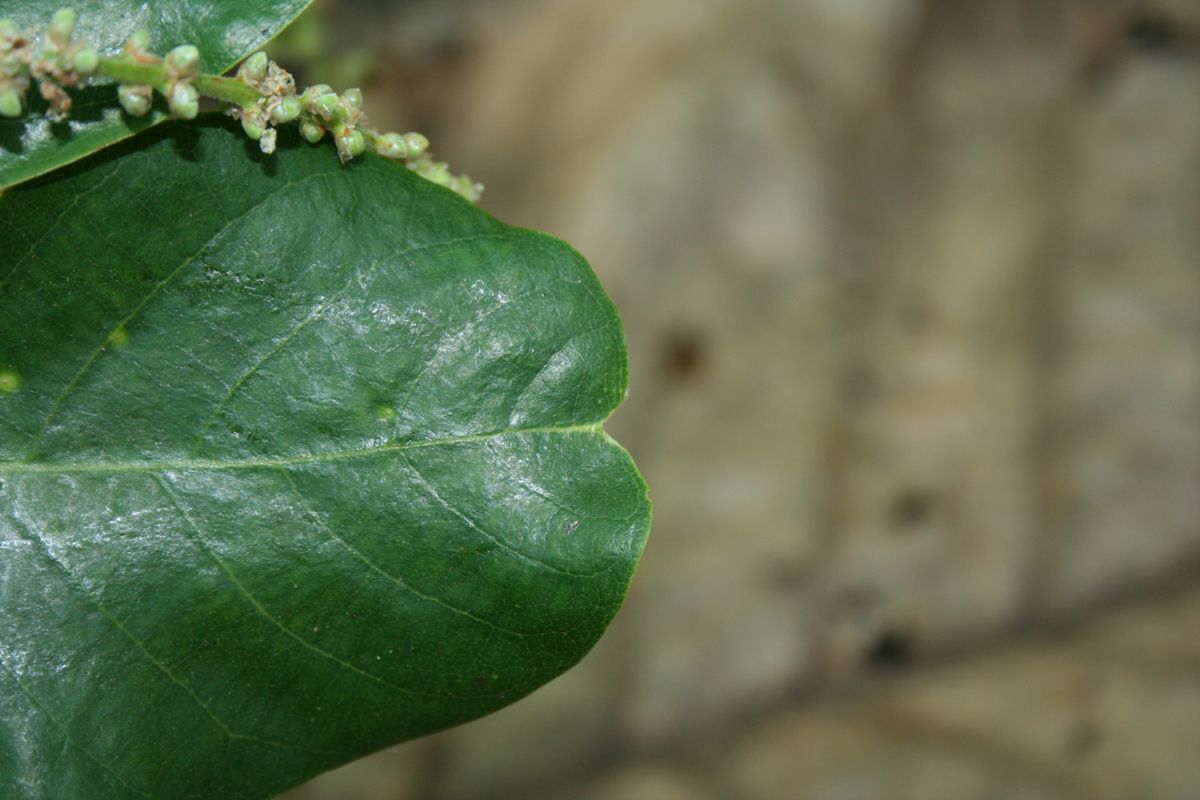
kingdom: Plantae
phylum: Tracheophyta
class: Magnoliopsida
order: Caryophyllales
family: Polygonaceae
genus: Coccoloba
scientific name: Coccoloba caracasana
